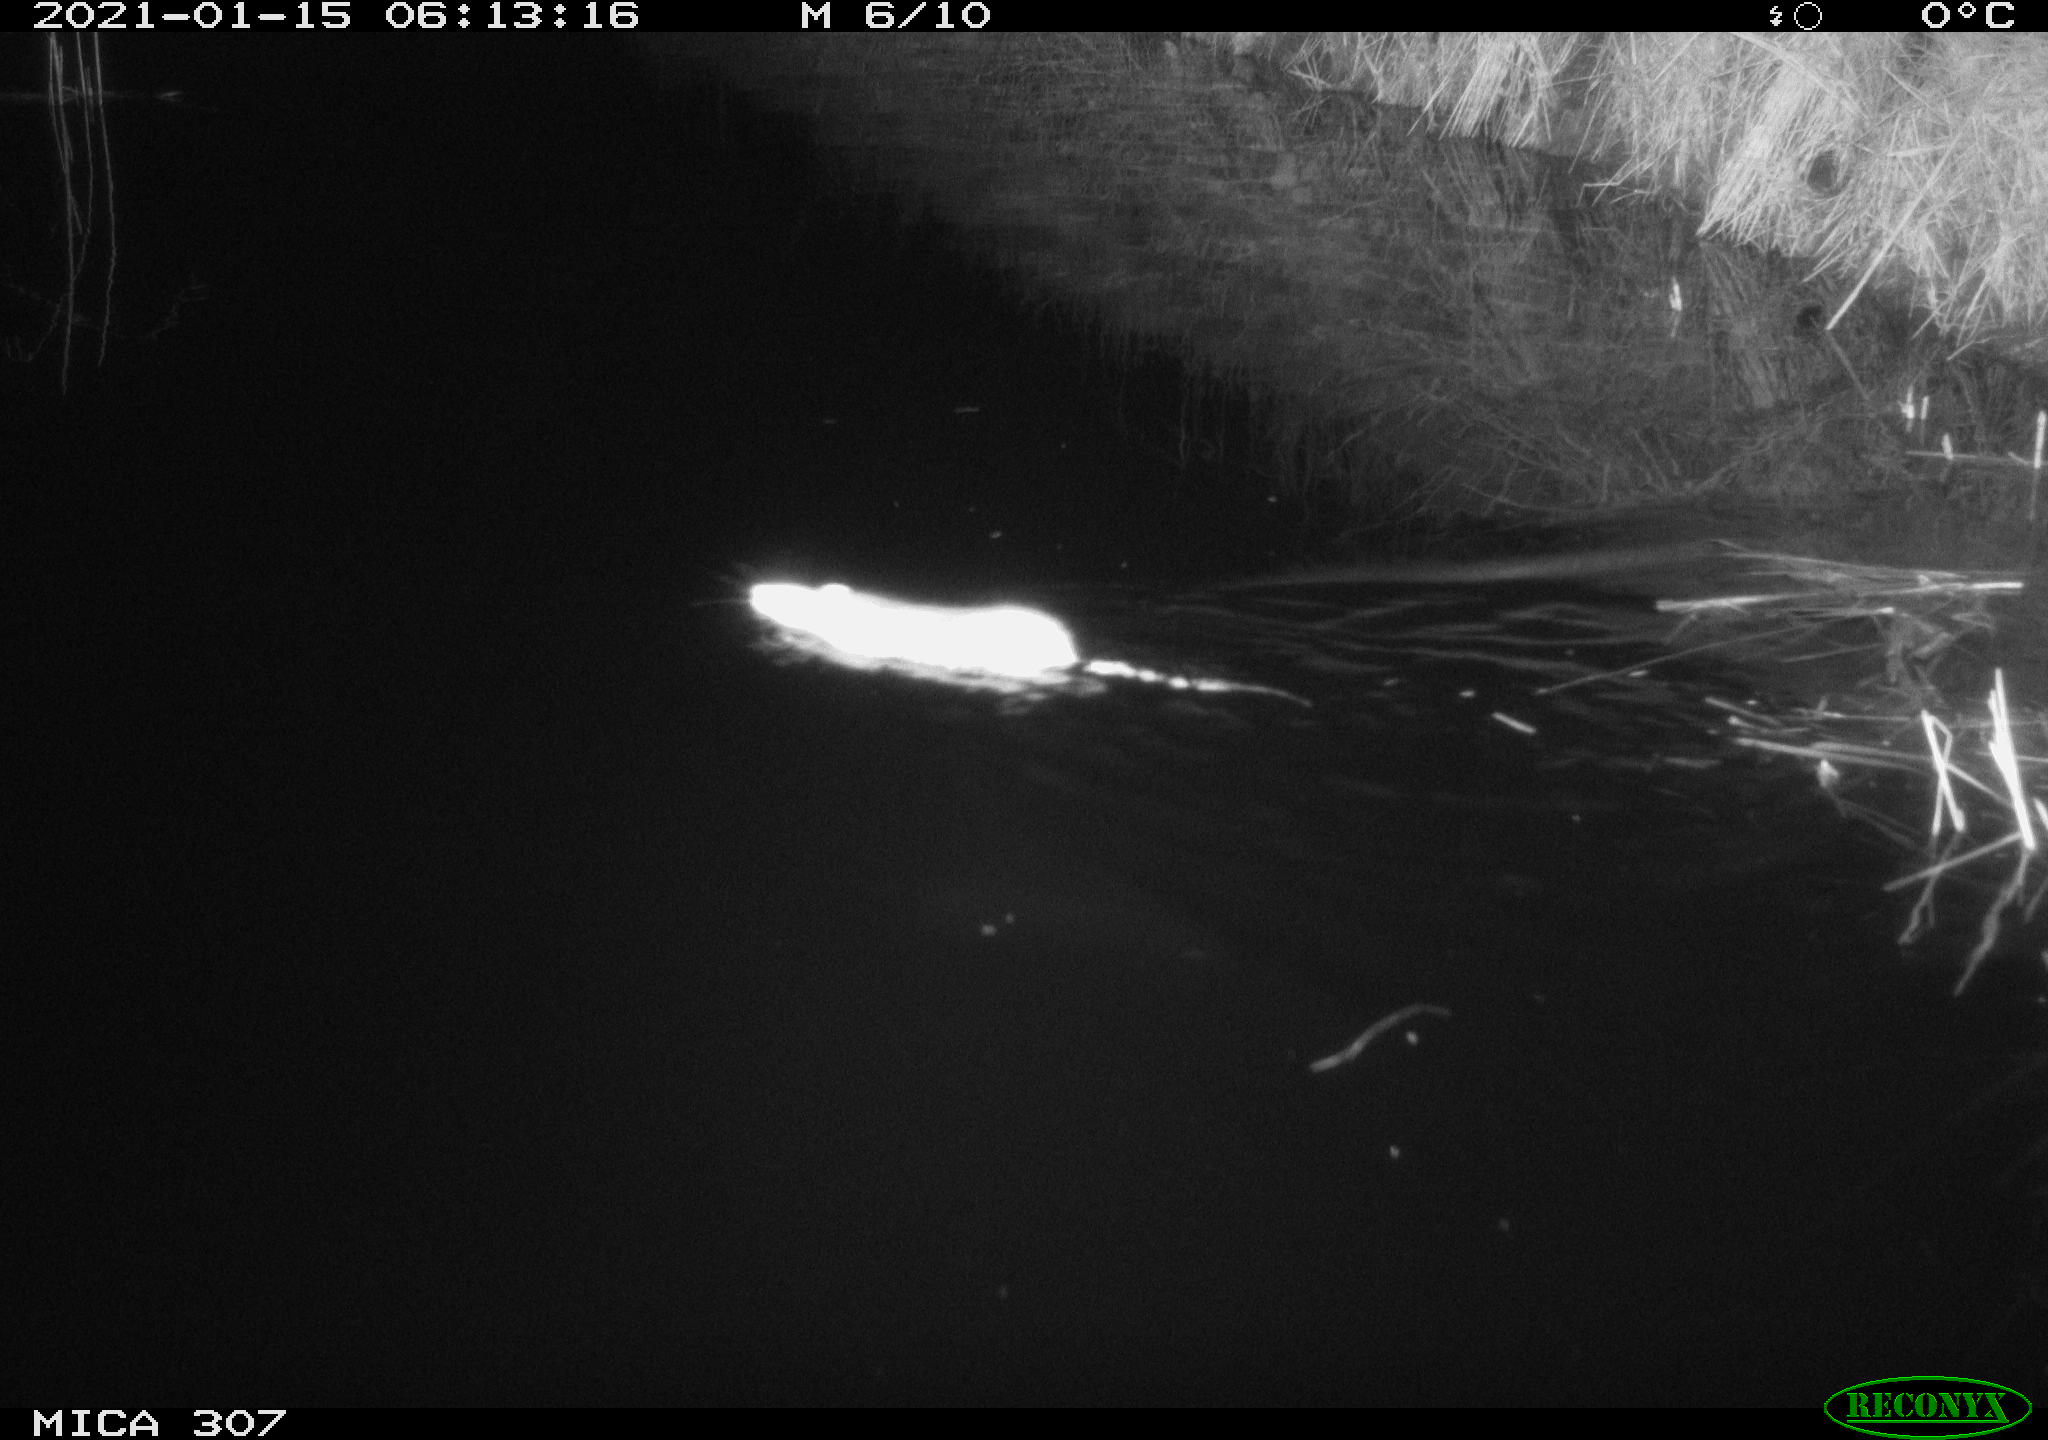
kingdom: Animalia
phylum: Chordata
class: Mammalia
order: Rodentia
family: Muridae
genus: Rattus
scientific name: Rattus norvegicus
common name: Brown rat
